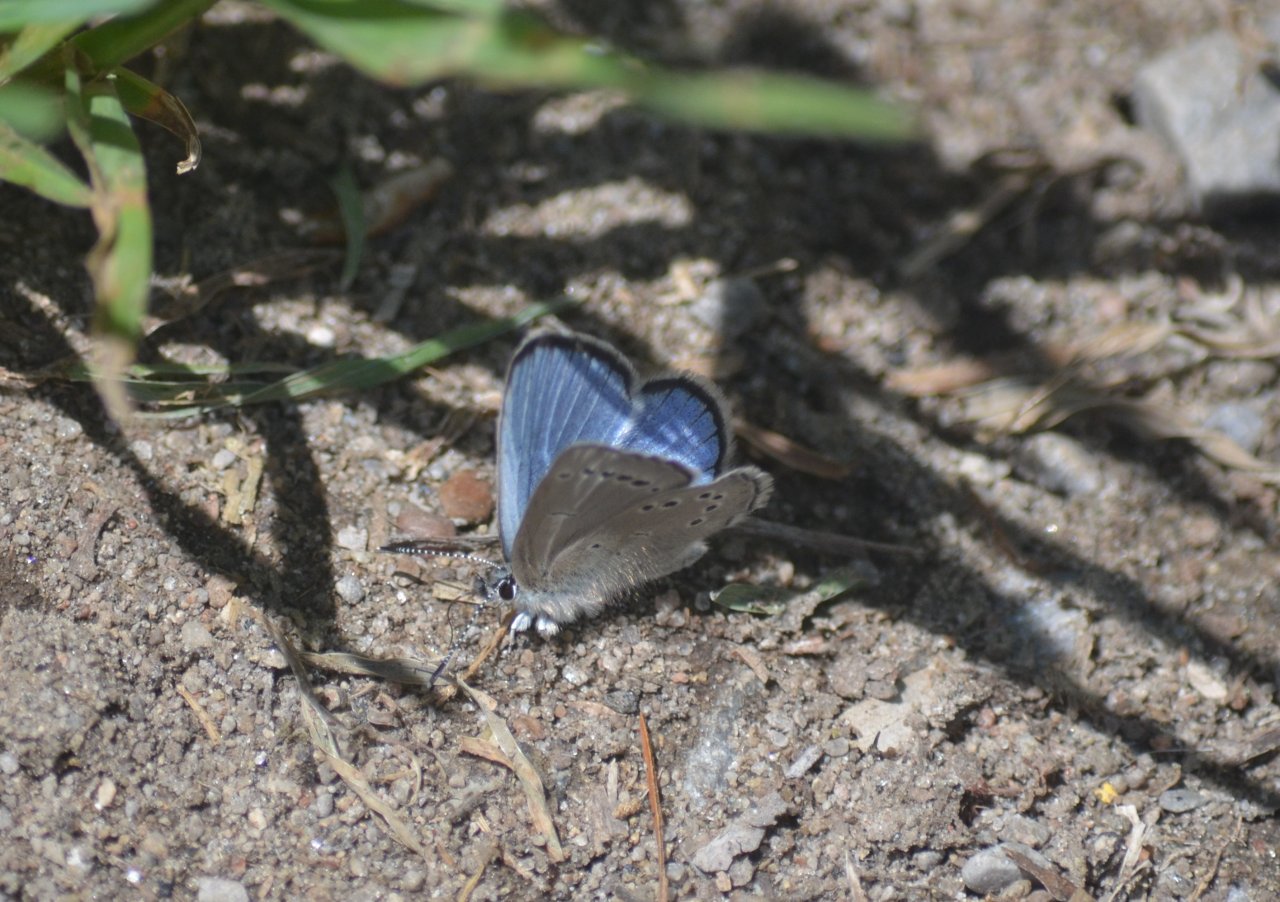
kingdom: Animalia
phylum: Arthropoda
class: Insecta
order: Lepidoptera
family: Lycaenidae
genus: Glaucopsyche
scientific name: Glaucopsyche lygdamus
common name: Silvery Blue
